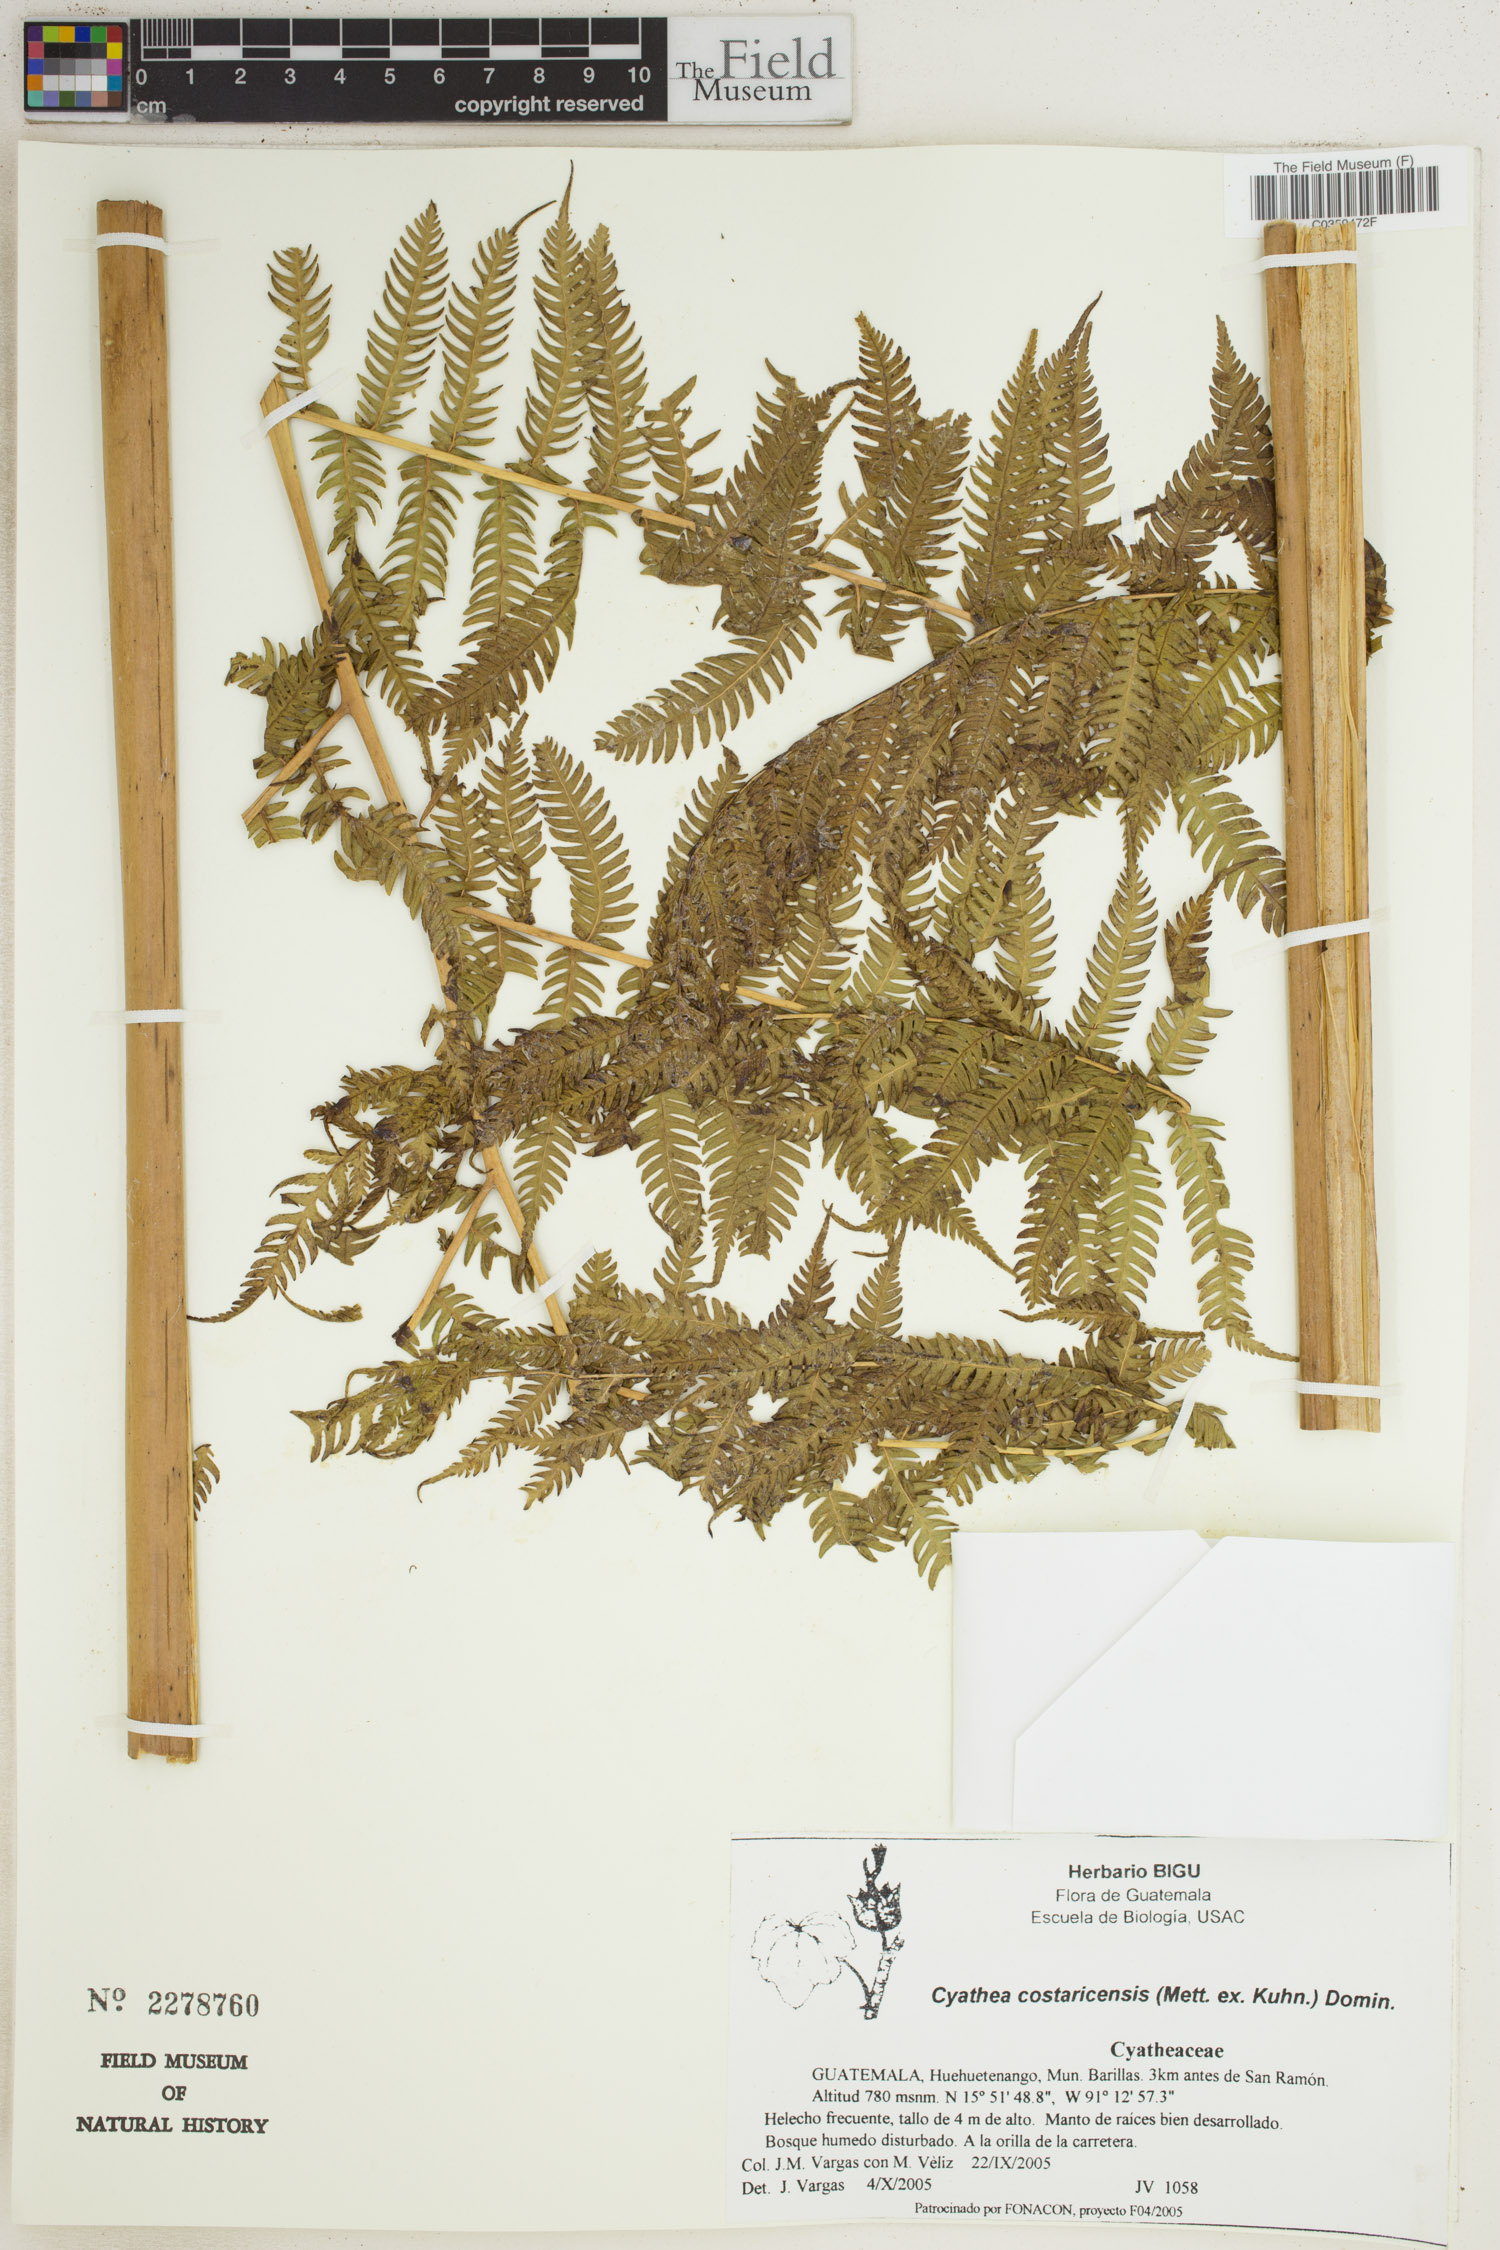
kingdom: Plantae
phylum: Tracheophyta
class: Polypodiopsida
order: Cyatheales
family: Cyatheaceae
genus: Cyathea
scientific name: Cyathea costaricensis
